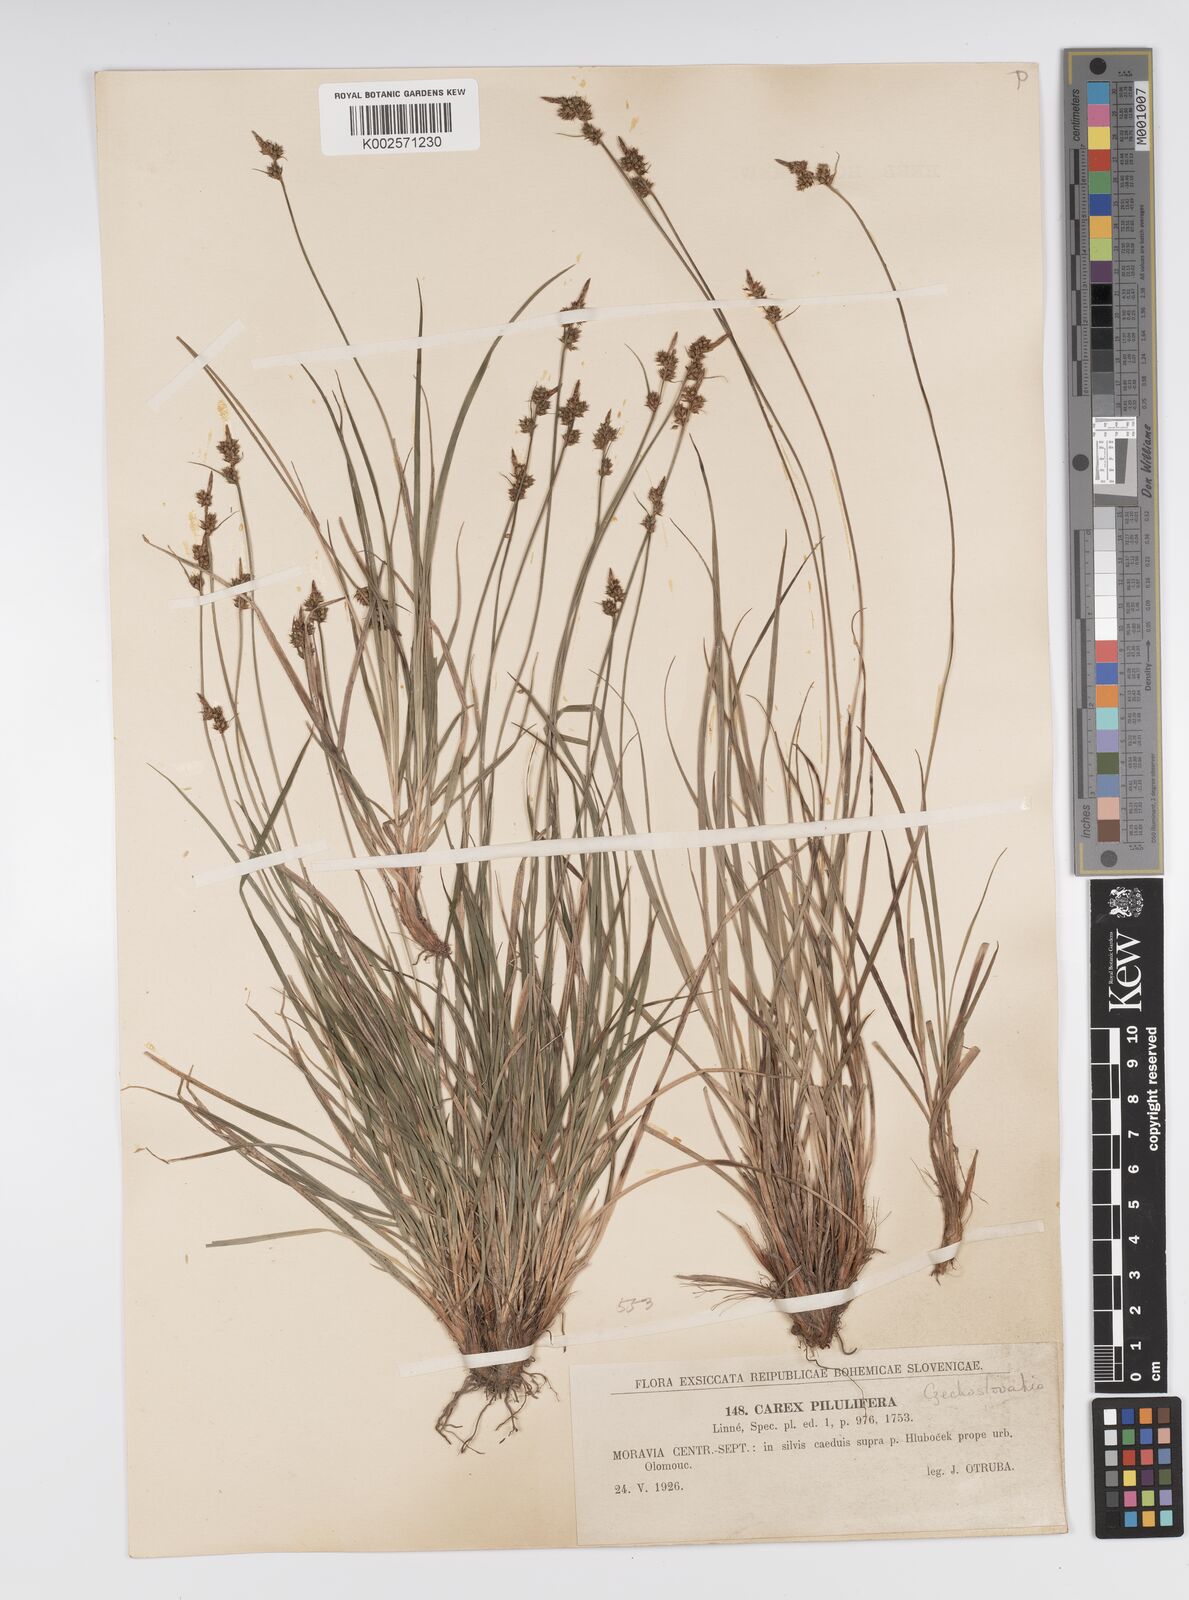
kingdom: Plantae
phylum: Tracheophyta
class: Liliopsida
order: Poales
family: Cyperaceae
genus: Carex
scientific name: Carex pilulifera
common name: Pill sedge
